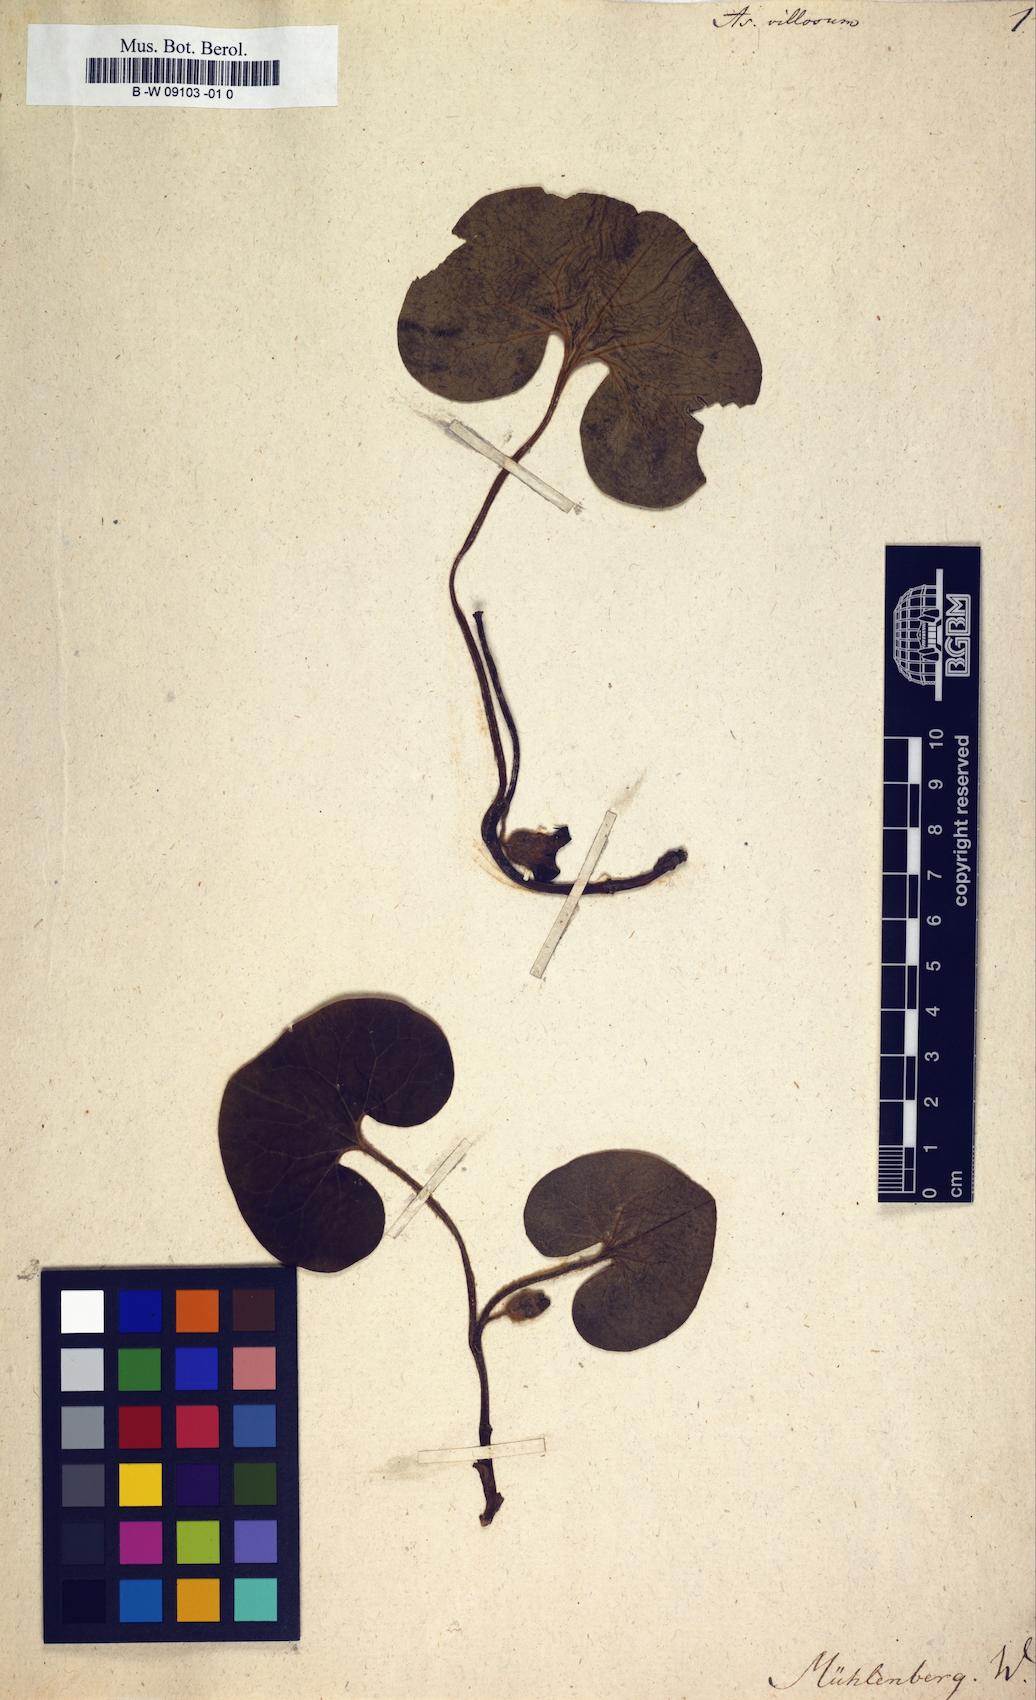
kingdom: Plantae
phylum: Tracheophyta
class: Magnoliopsida
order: Piperales
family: Aristolochiaceae
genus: Asarum
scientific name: Asarum canadense
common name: Wild ginger
